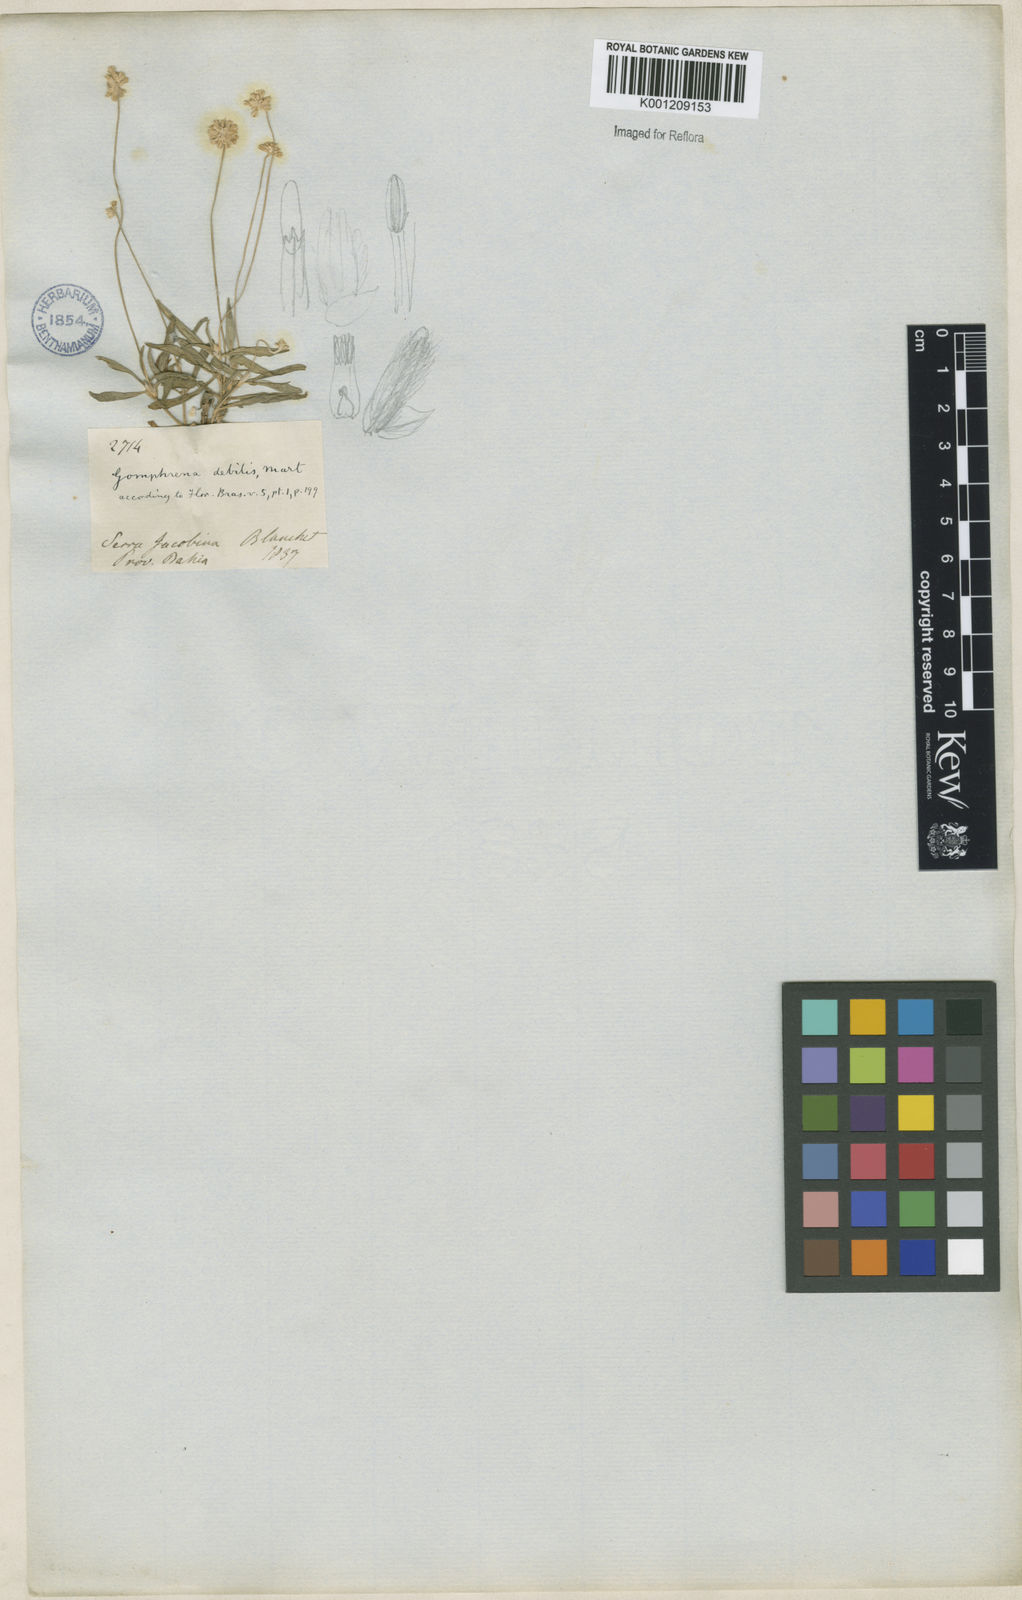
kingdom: Plantae
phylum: Tracheophyta
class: Magnoliopsida
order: Caryophyllales
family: Amaranthaceae
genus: Gomphrena
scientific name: Gomphrena debilis
